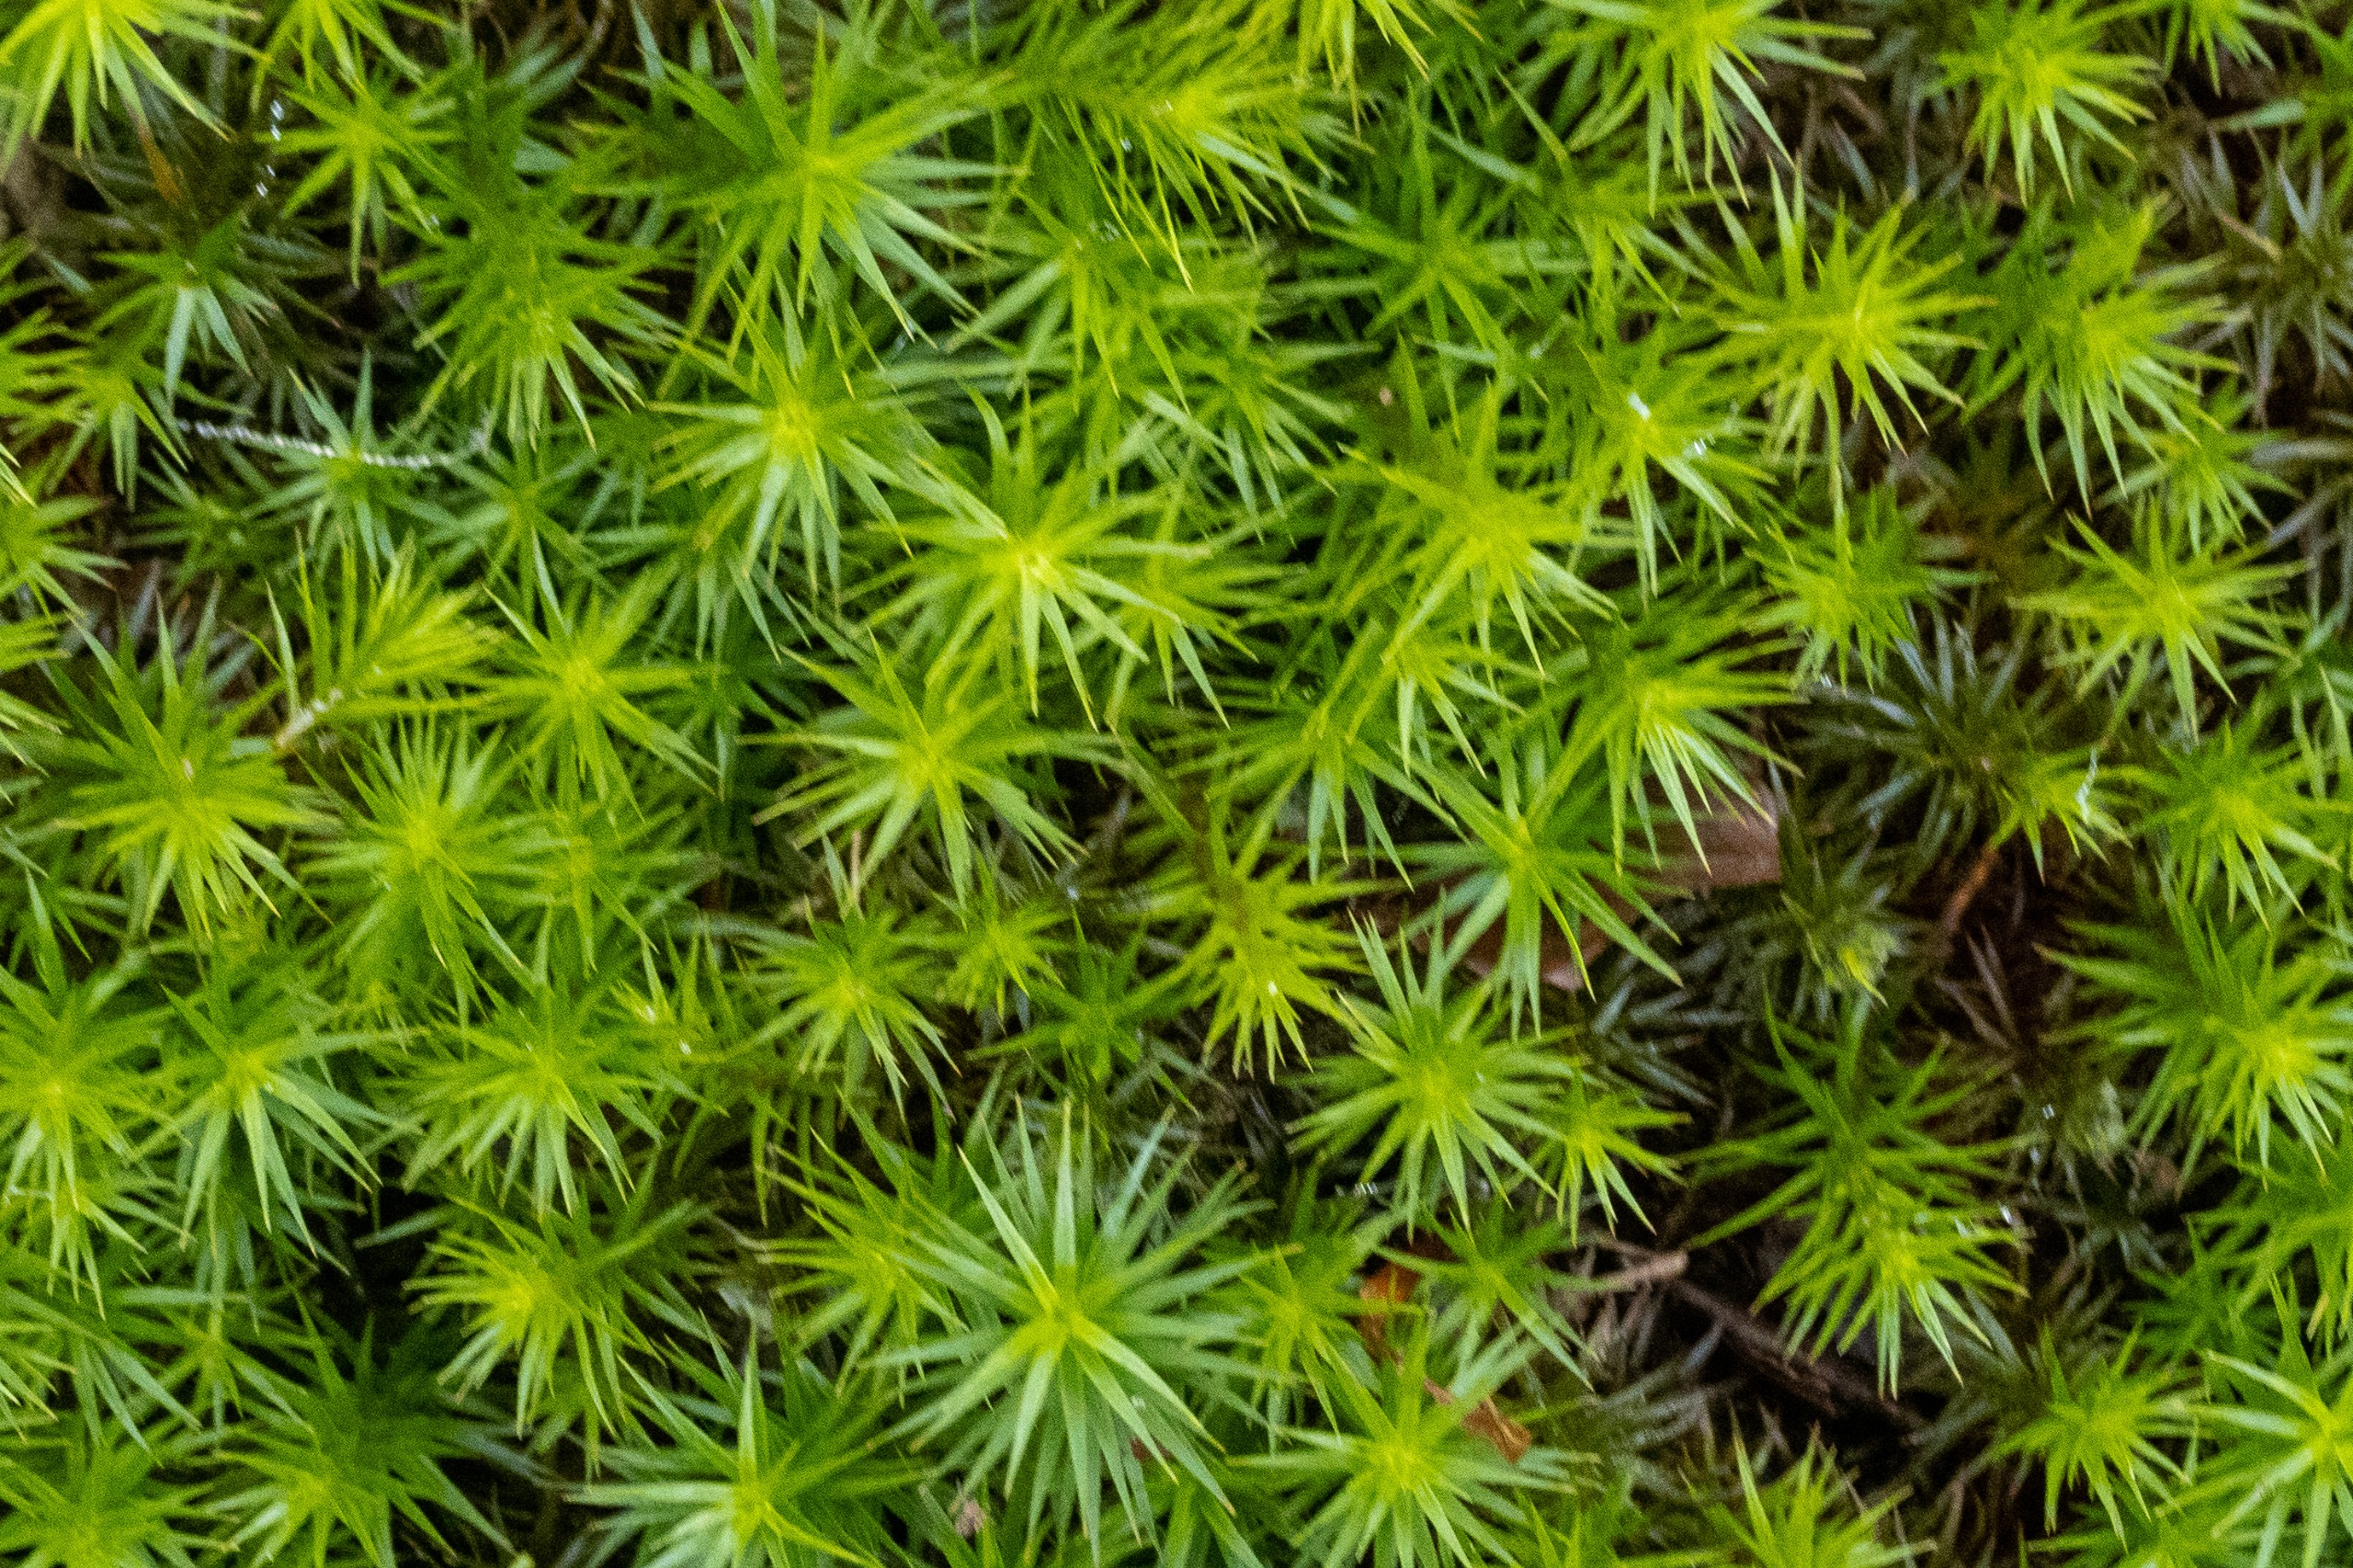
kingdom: Plantae
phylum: Bryophyta
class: Polytrichopsida
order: Polytrichales
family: Polytrichaceae
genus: Polytrichum
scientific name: Polytrichum formosum
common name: Skov-jomfruhår
